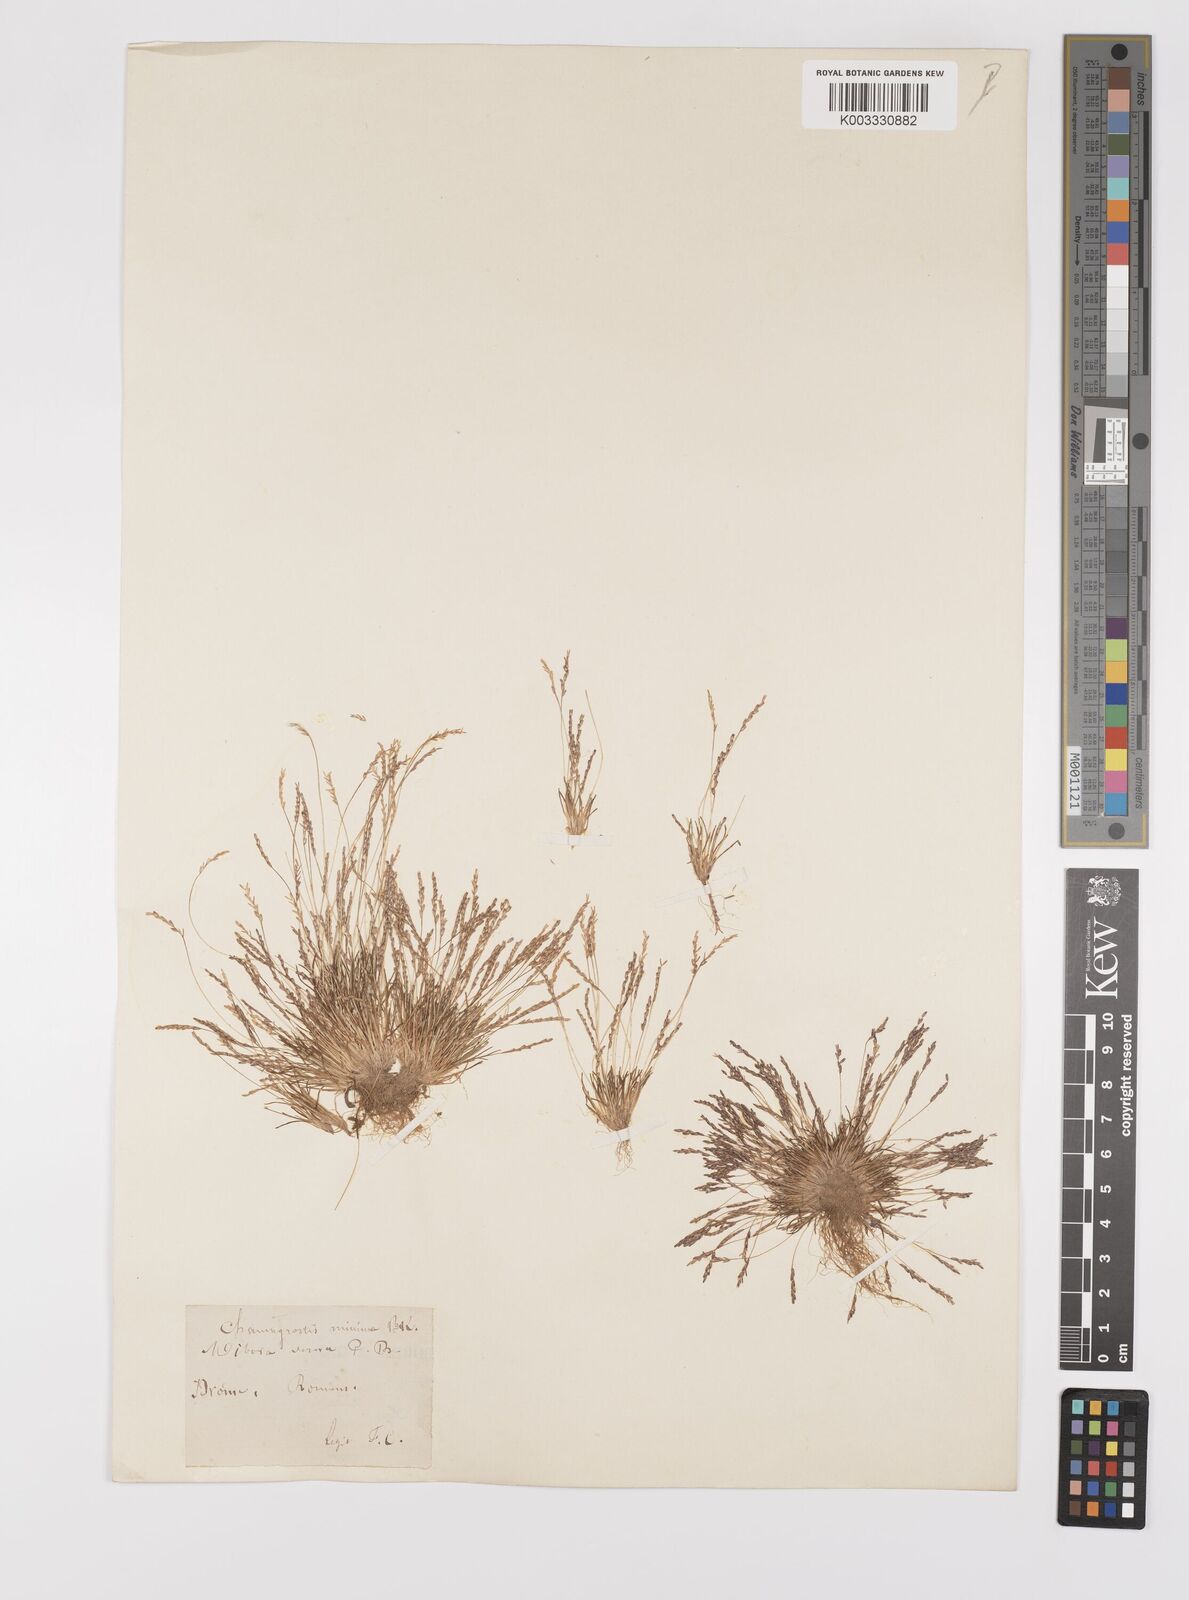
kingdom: Plantae
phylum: Tracheophyta
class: Liliopsida
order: Poales
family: Poaceae
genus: Mibora
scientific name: Mibora minima
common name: Early sand-grass
